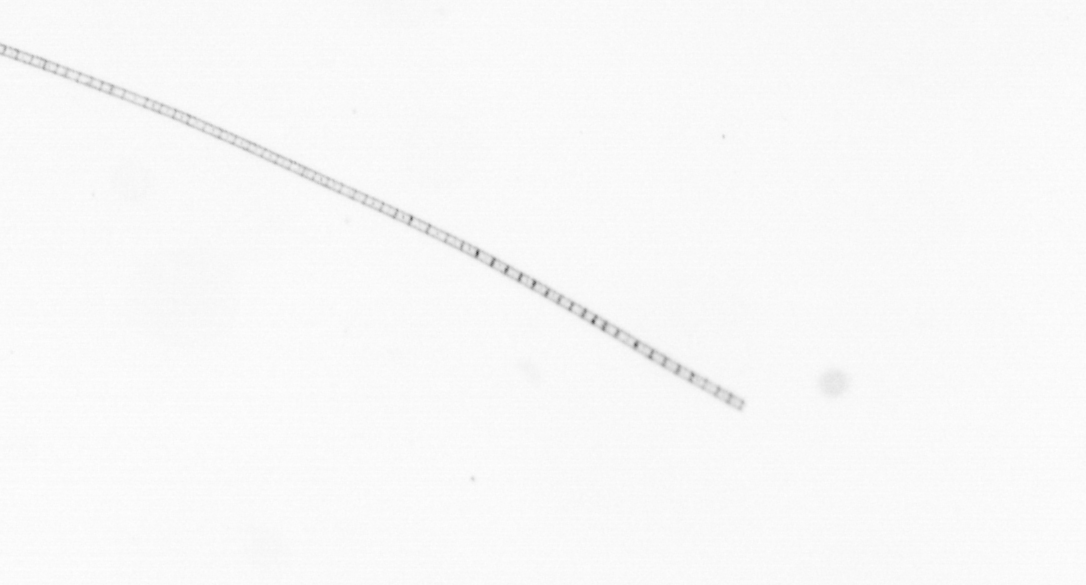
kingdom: Chromista
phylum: Ochrophyta
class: Bacillariophyceae
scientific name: Bacillariophyceae
